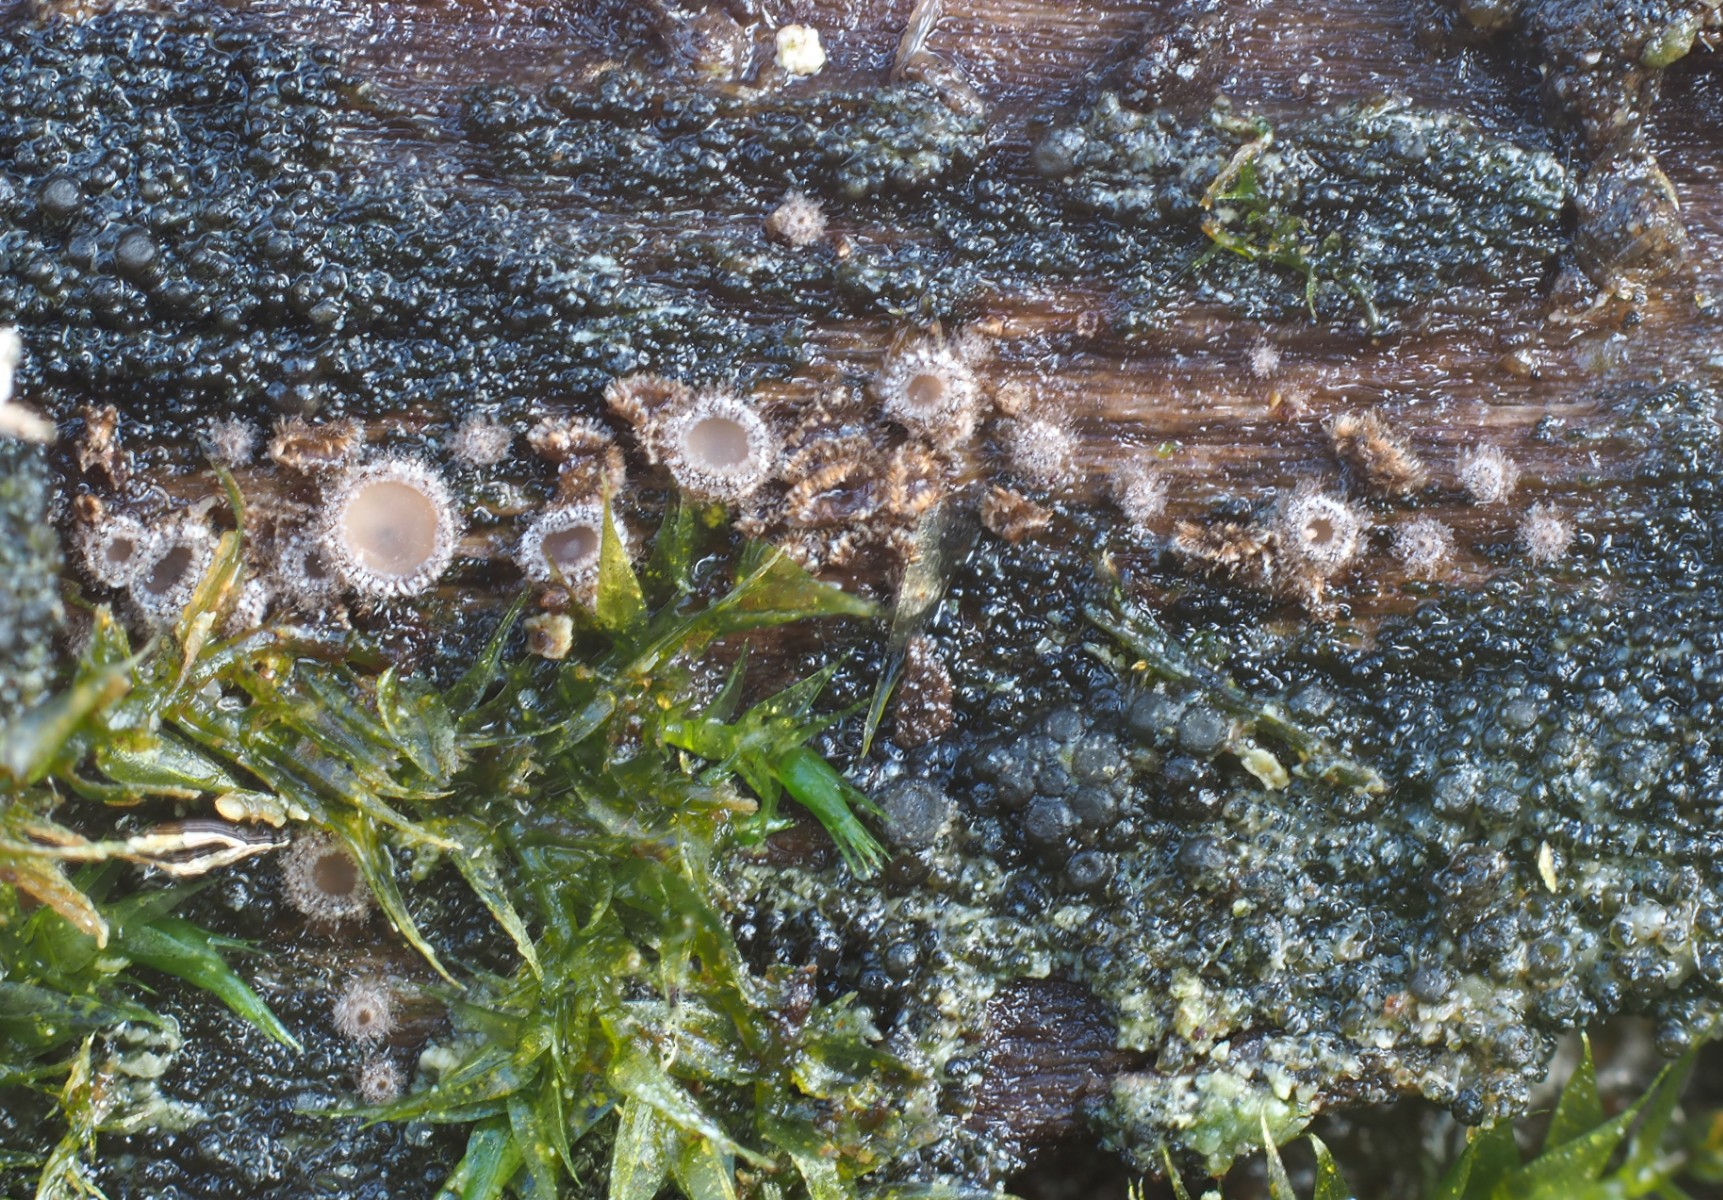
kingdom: Fungi
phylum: Ascomycota
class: Leotiomycetes
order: Helotiales
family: Solenopeziaceae
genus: Lasiobelonium
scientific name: Lasiobelonium variegatum
